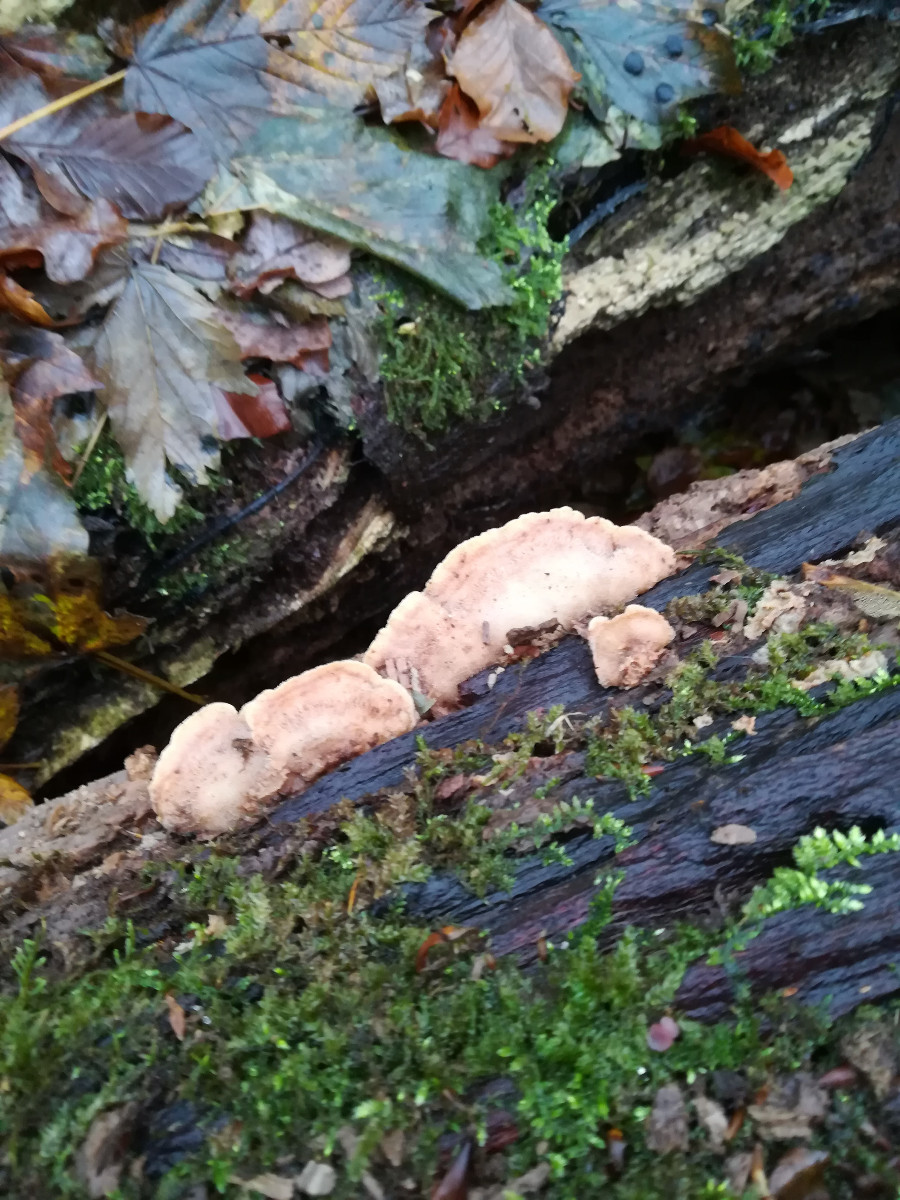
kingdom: Fungi
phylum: Basidiomycota
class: Agaricomycetes
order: Polyporales
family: Meruliaceae
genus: Phlebia
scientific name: Phlebia tremellosa
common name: bævrende åresvamp
